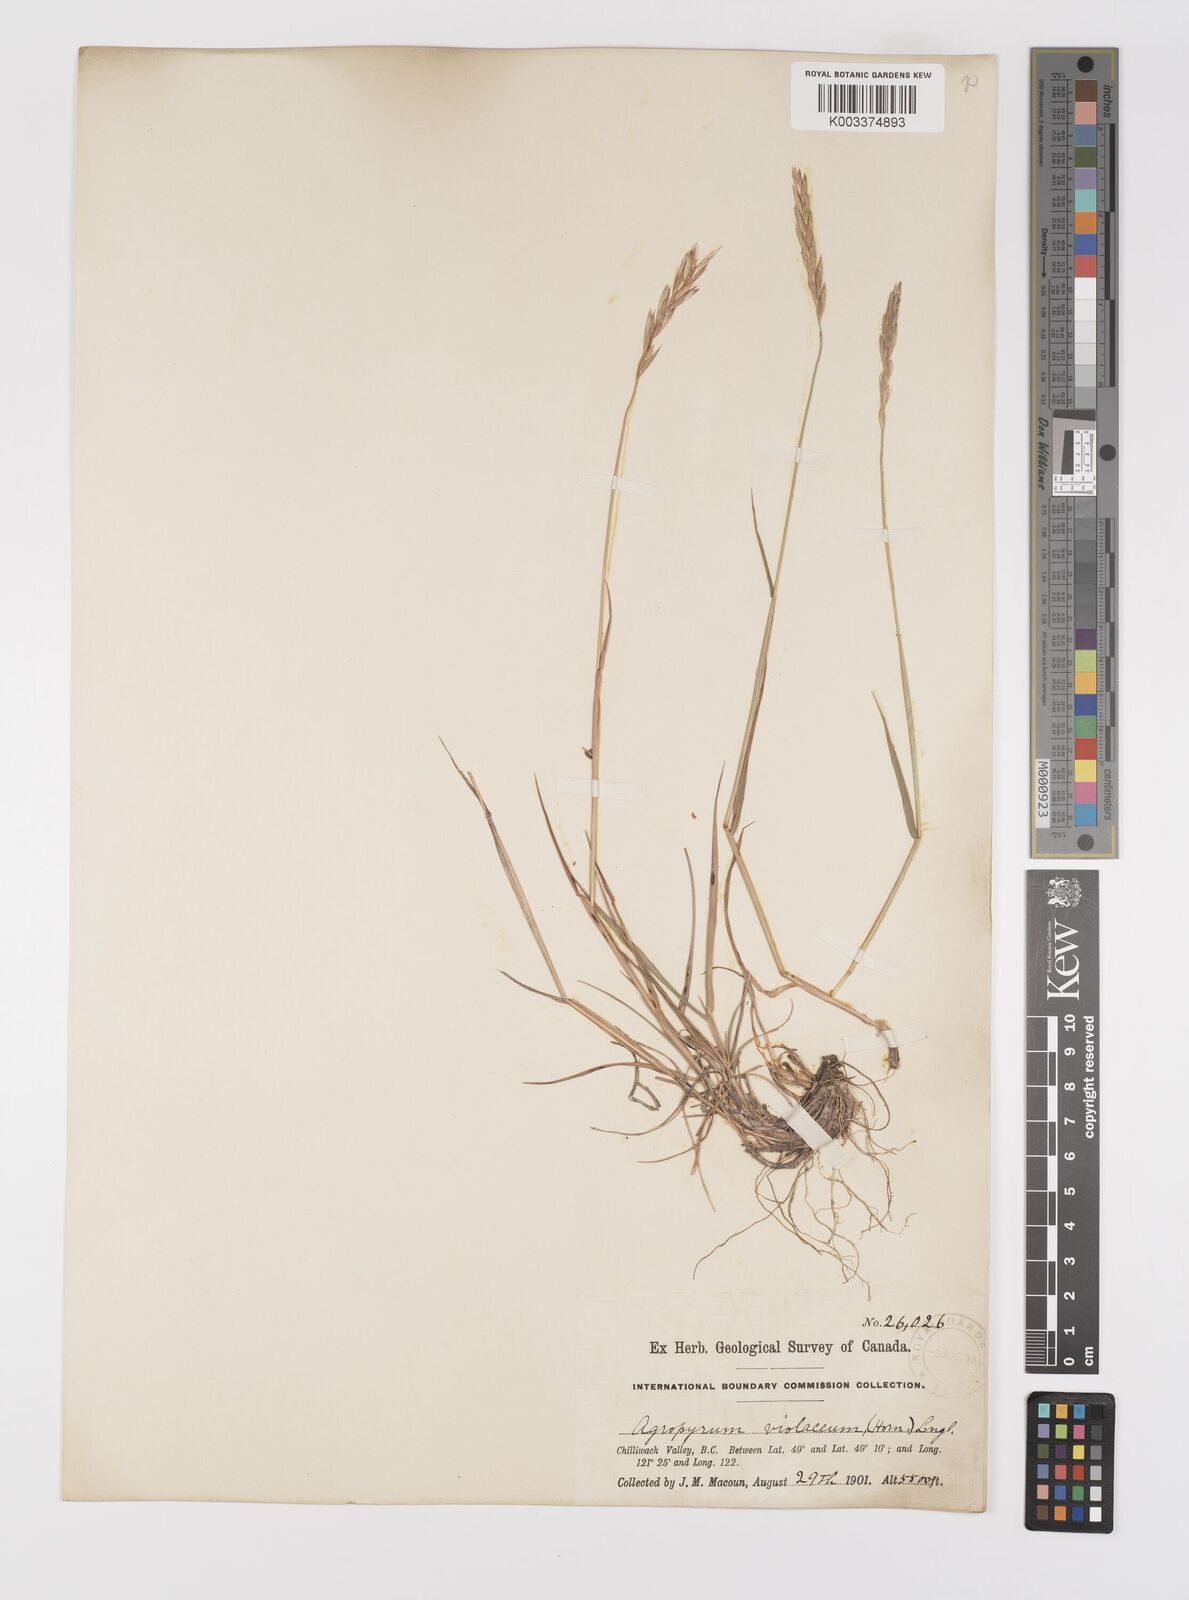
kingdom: Plantae
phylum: Tracheophyta
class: Liliopsida
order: Poales
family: Poaceae
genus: Elymus
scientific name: Elymus violaceus
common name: Arctic wheatgrass
